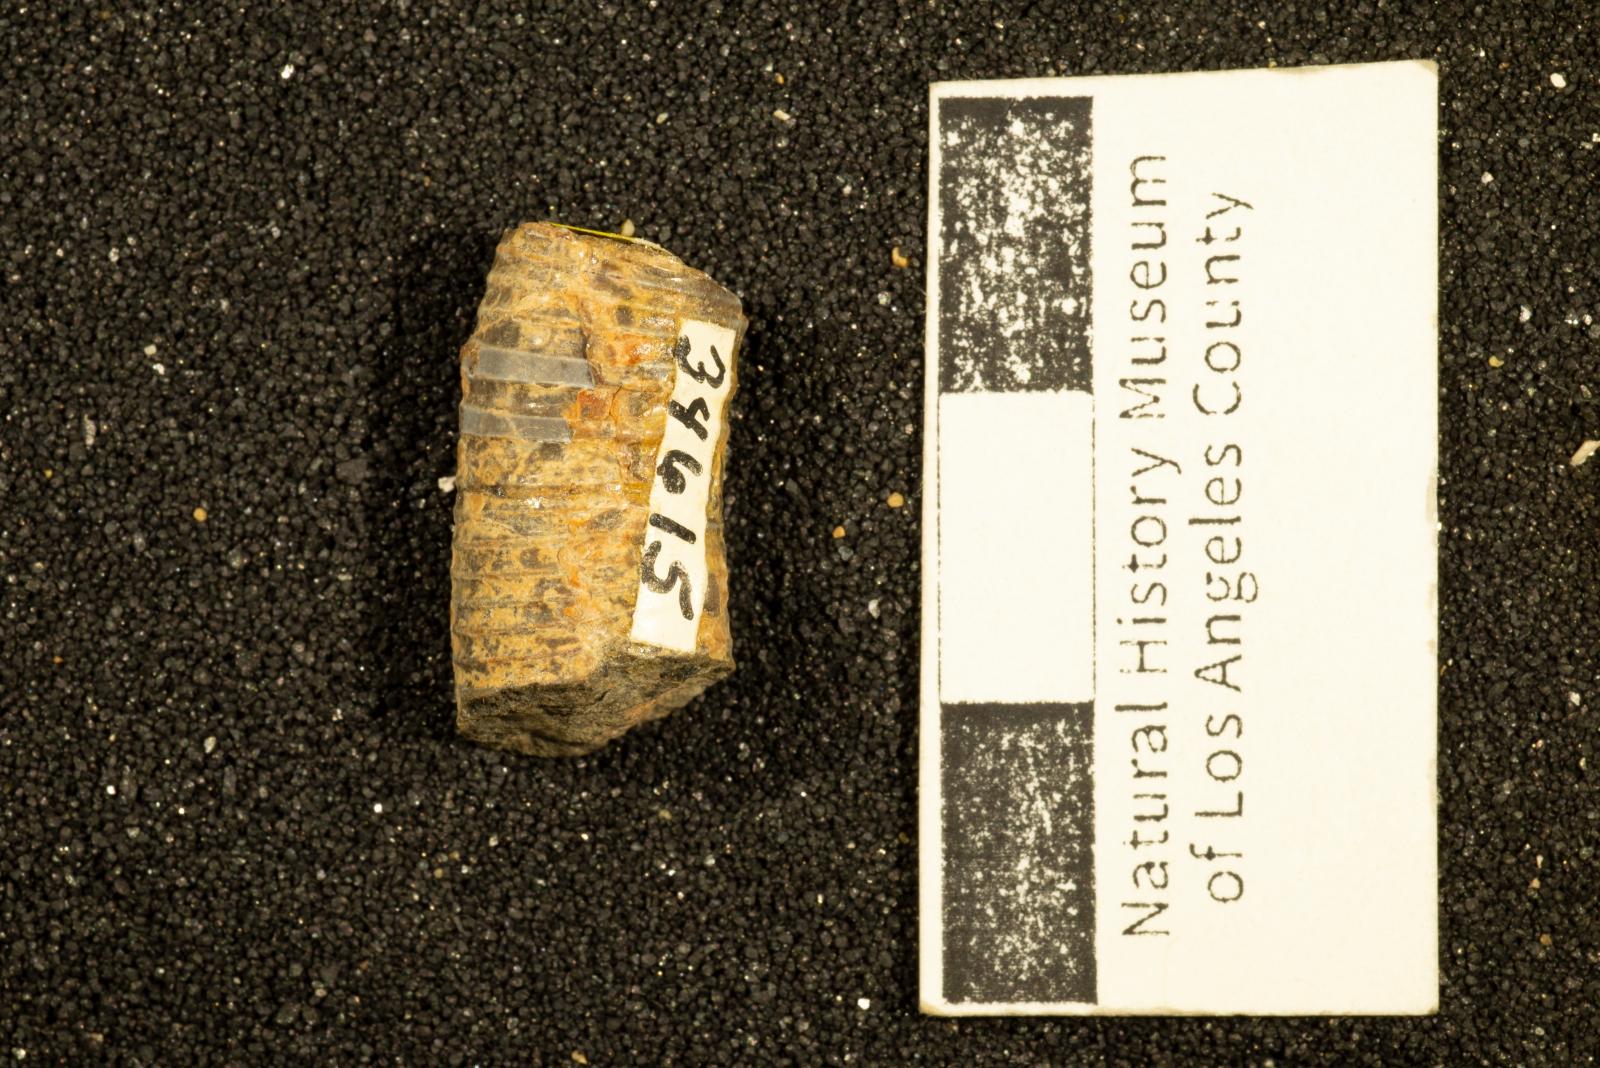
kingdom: Animalia
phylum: Mollusca
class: Cephalopoda
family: Diplomoceratidae
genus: Scalarites
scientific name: Scalarites mihoensis
